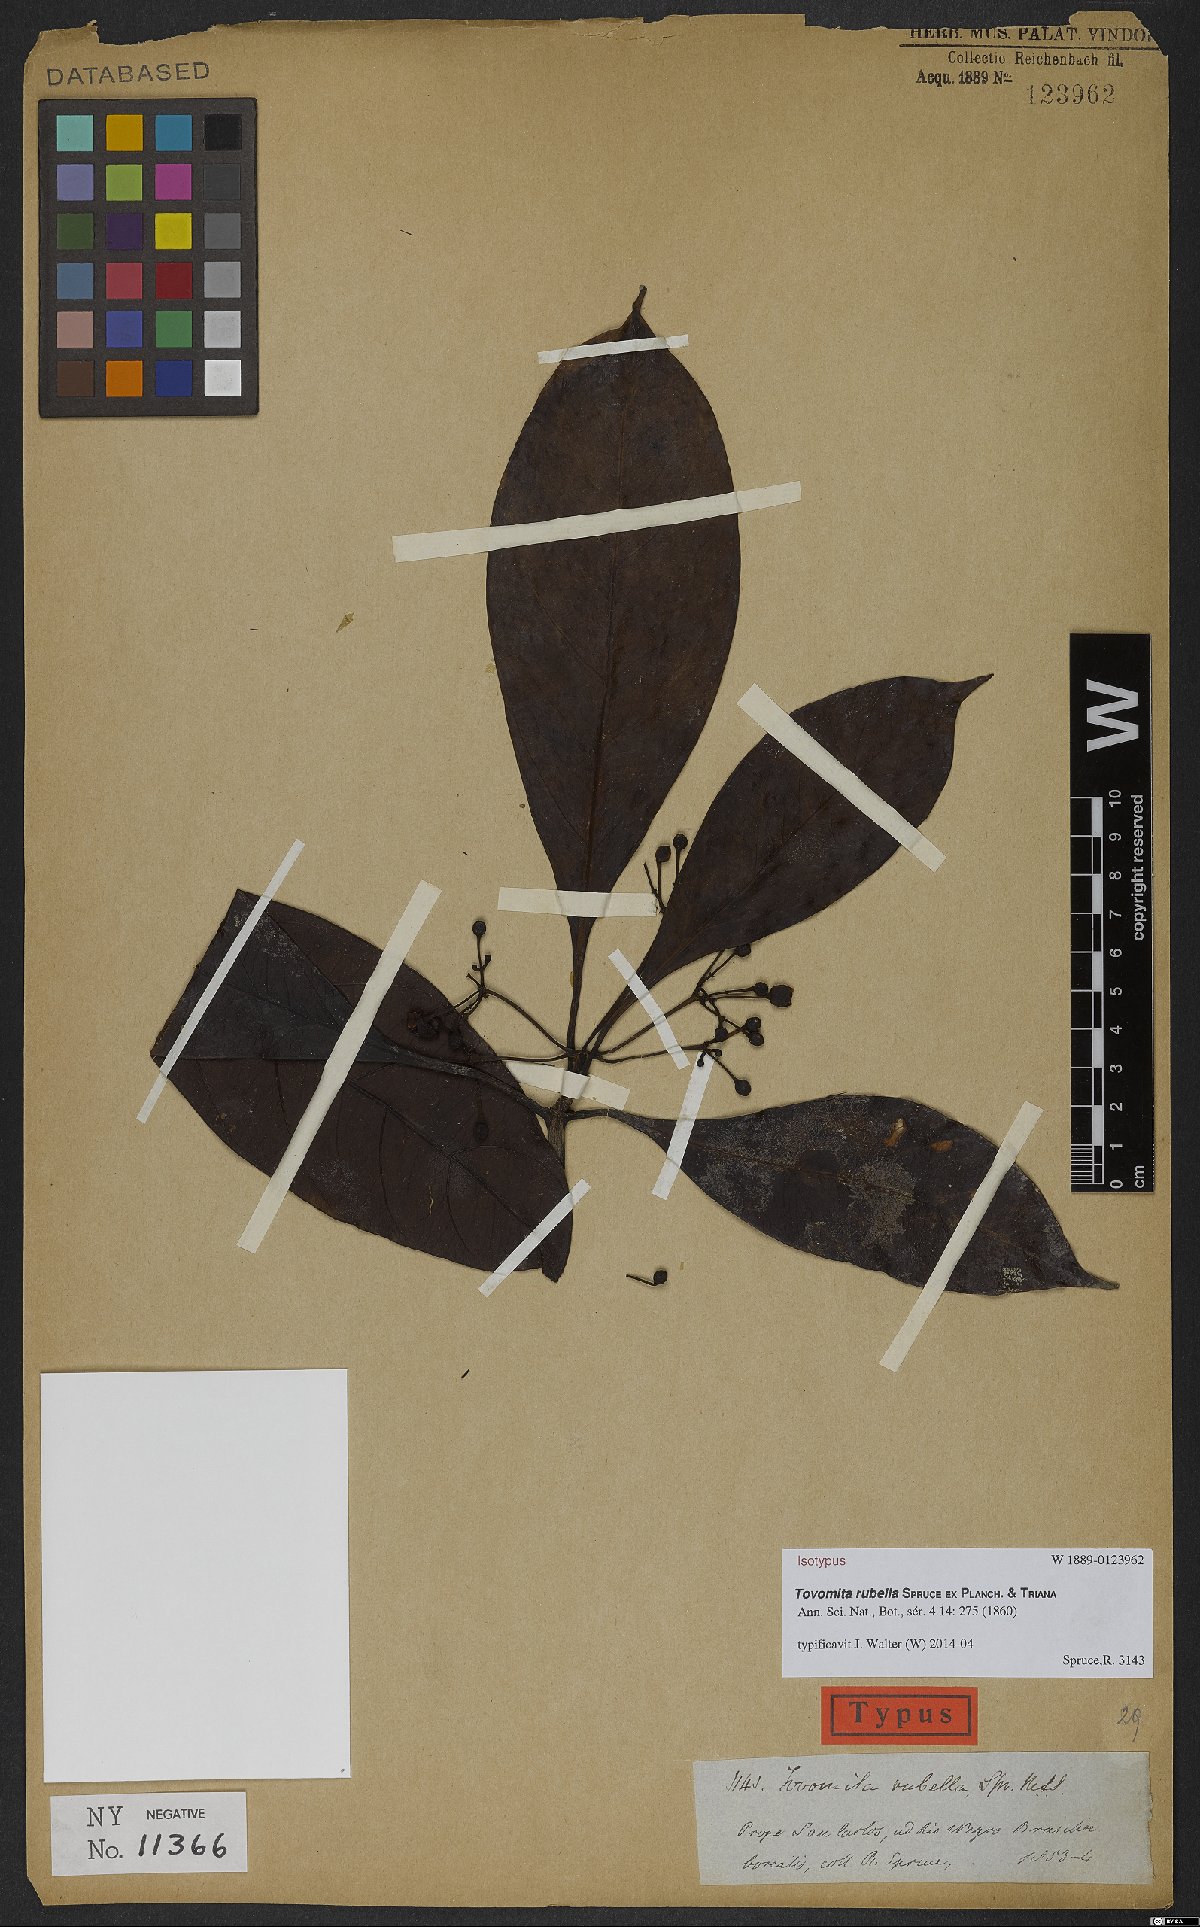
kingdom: Plantae
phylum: Tracheophyta
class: Magnoliopsida
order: Malpighiales
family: Clusiaceae
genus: Tovomita
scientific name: Tovomita rubella
